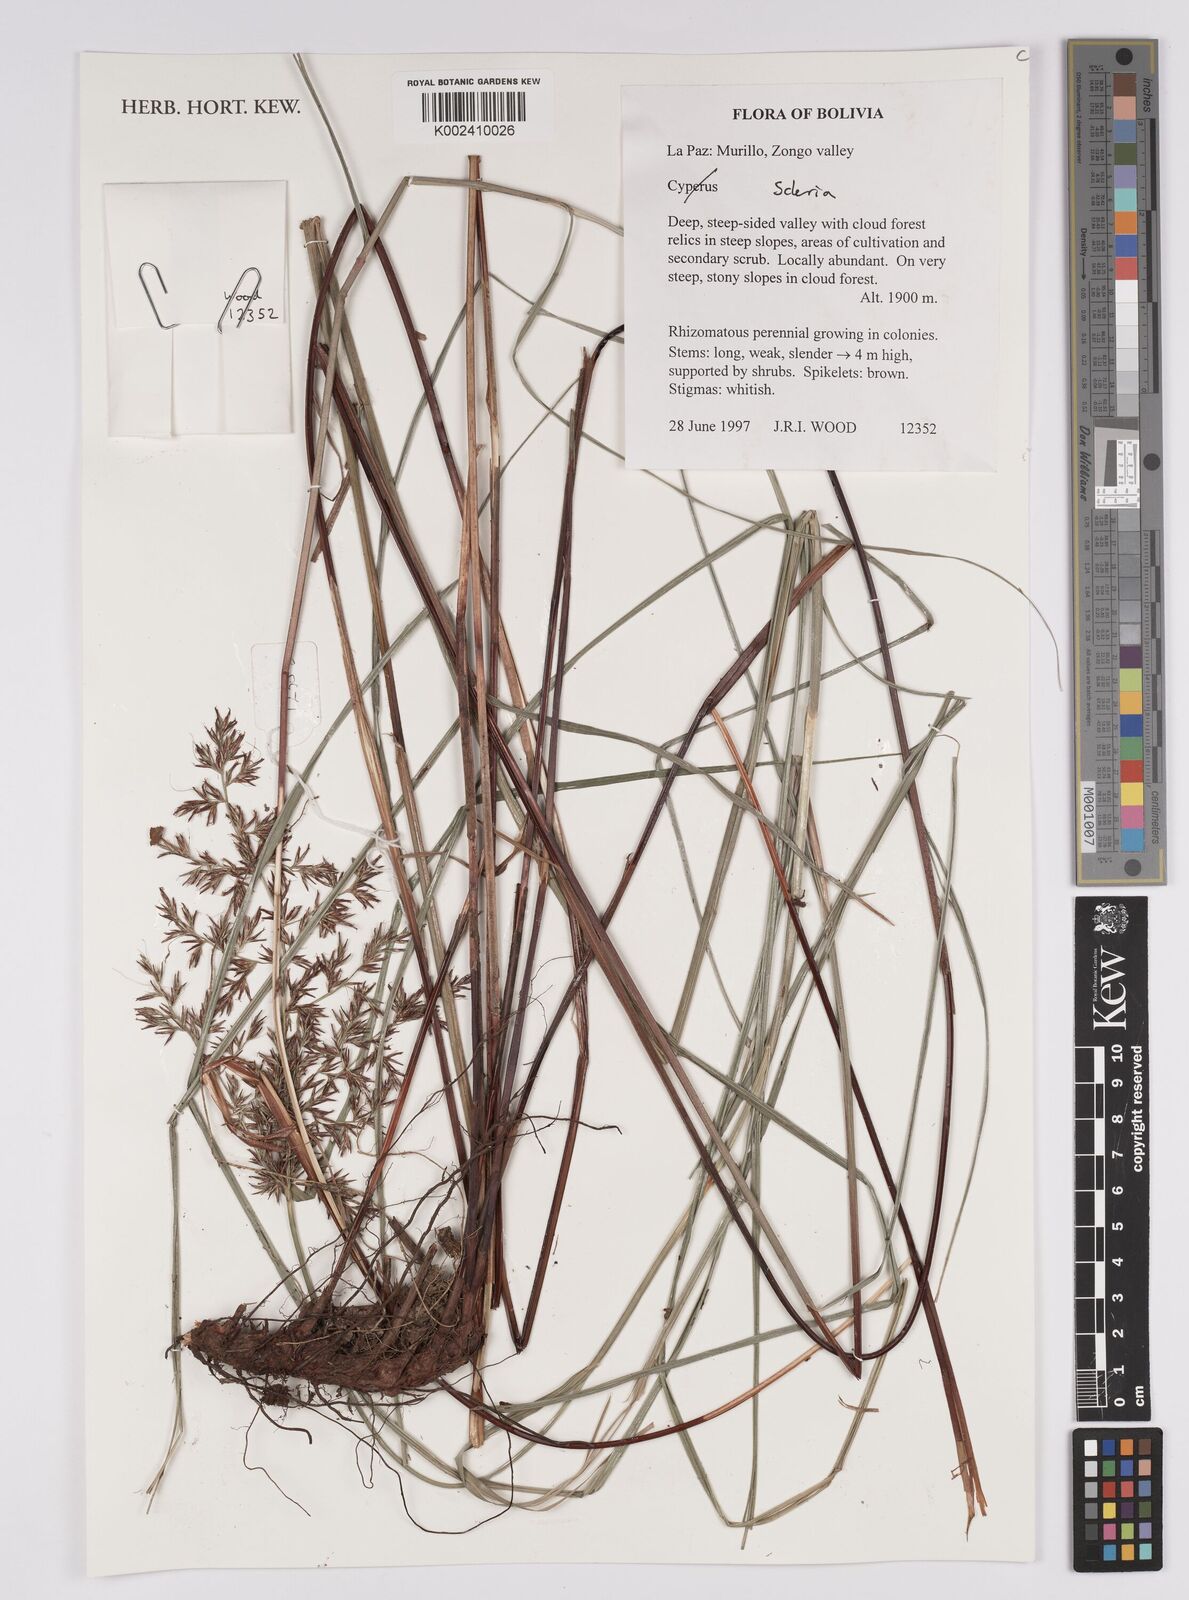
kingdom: Plantae
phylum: Tracheophyta
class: Liliopsida
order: Poales
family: Cyperaceae
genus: Scleria
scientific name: Scleria
